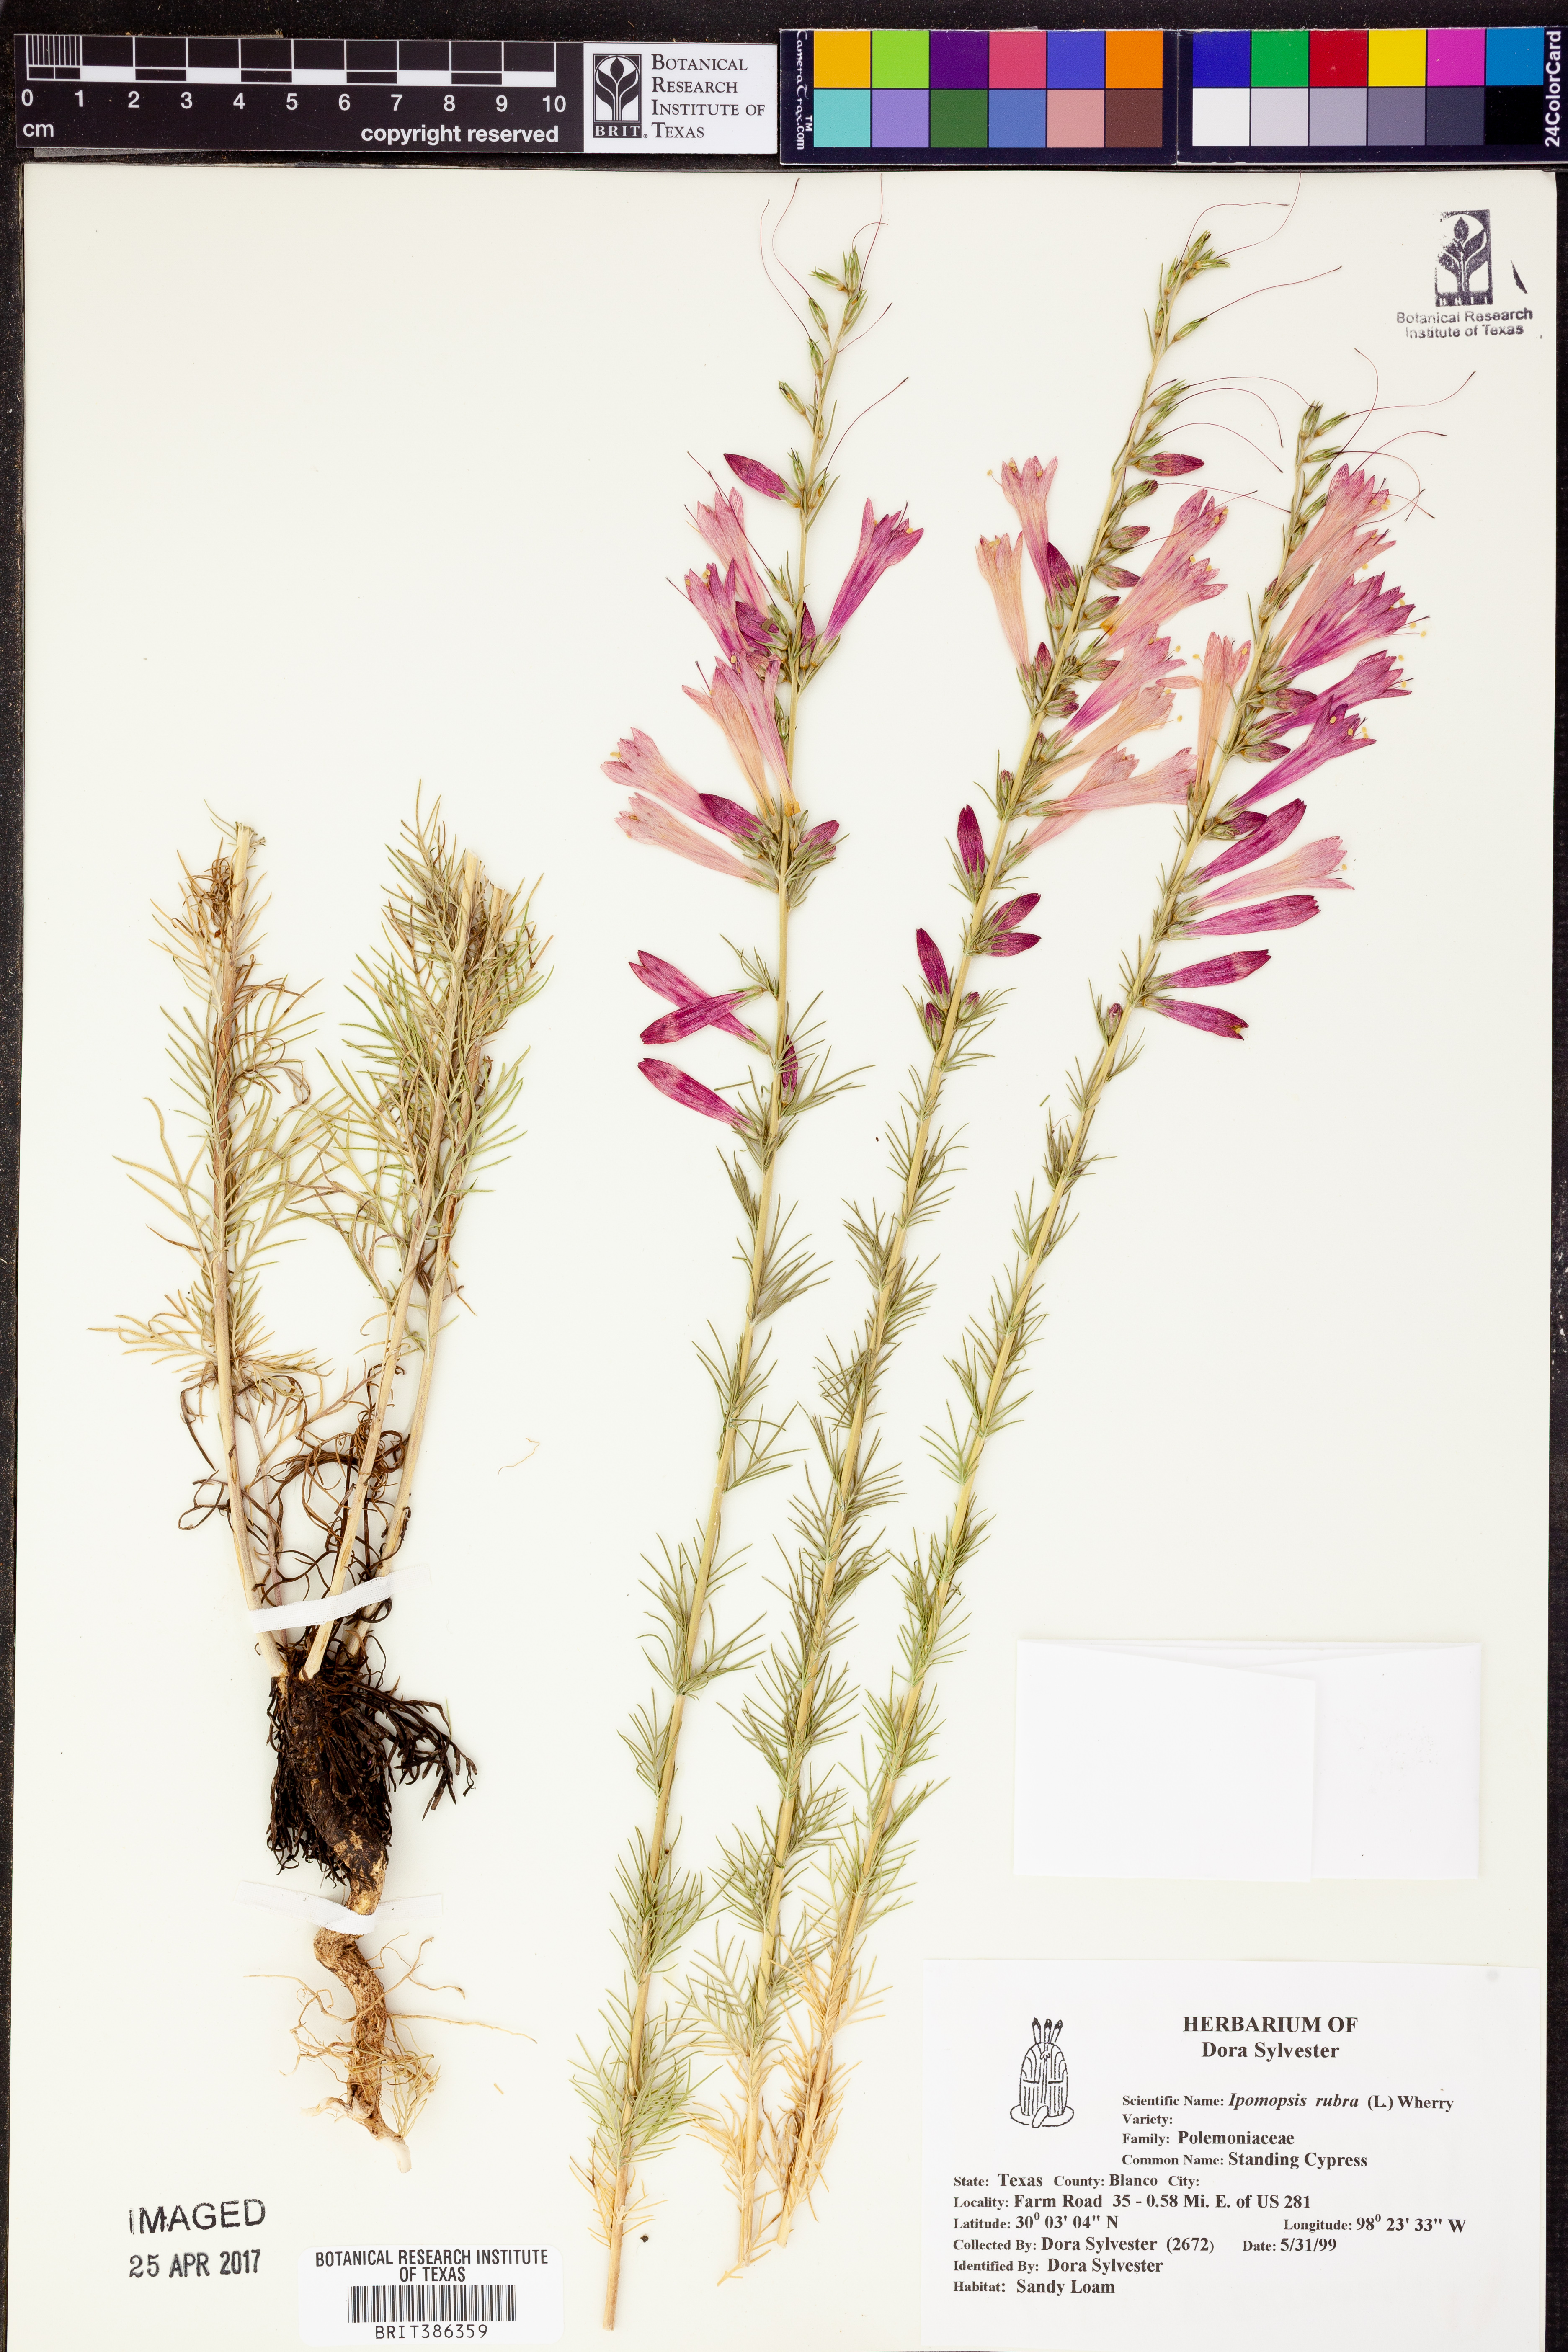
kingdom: Plantae
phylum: Tracheophyta
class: Magnoliopsida
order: Ericales
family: Polemoniaceae
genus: Ipomopsis
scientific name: Ipomopsis rubra
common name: Skyrocket
